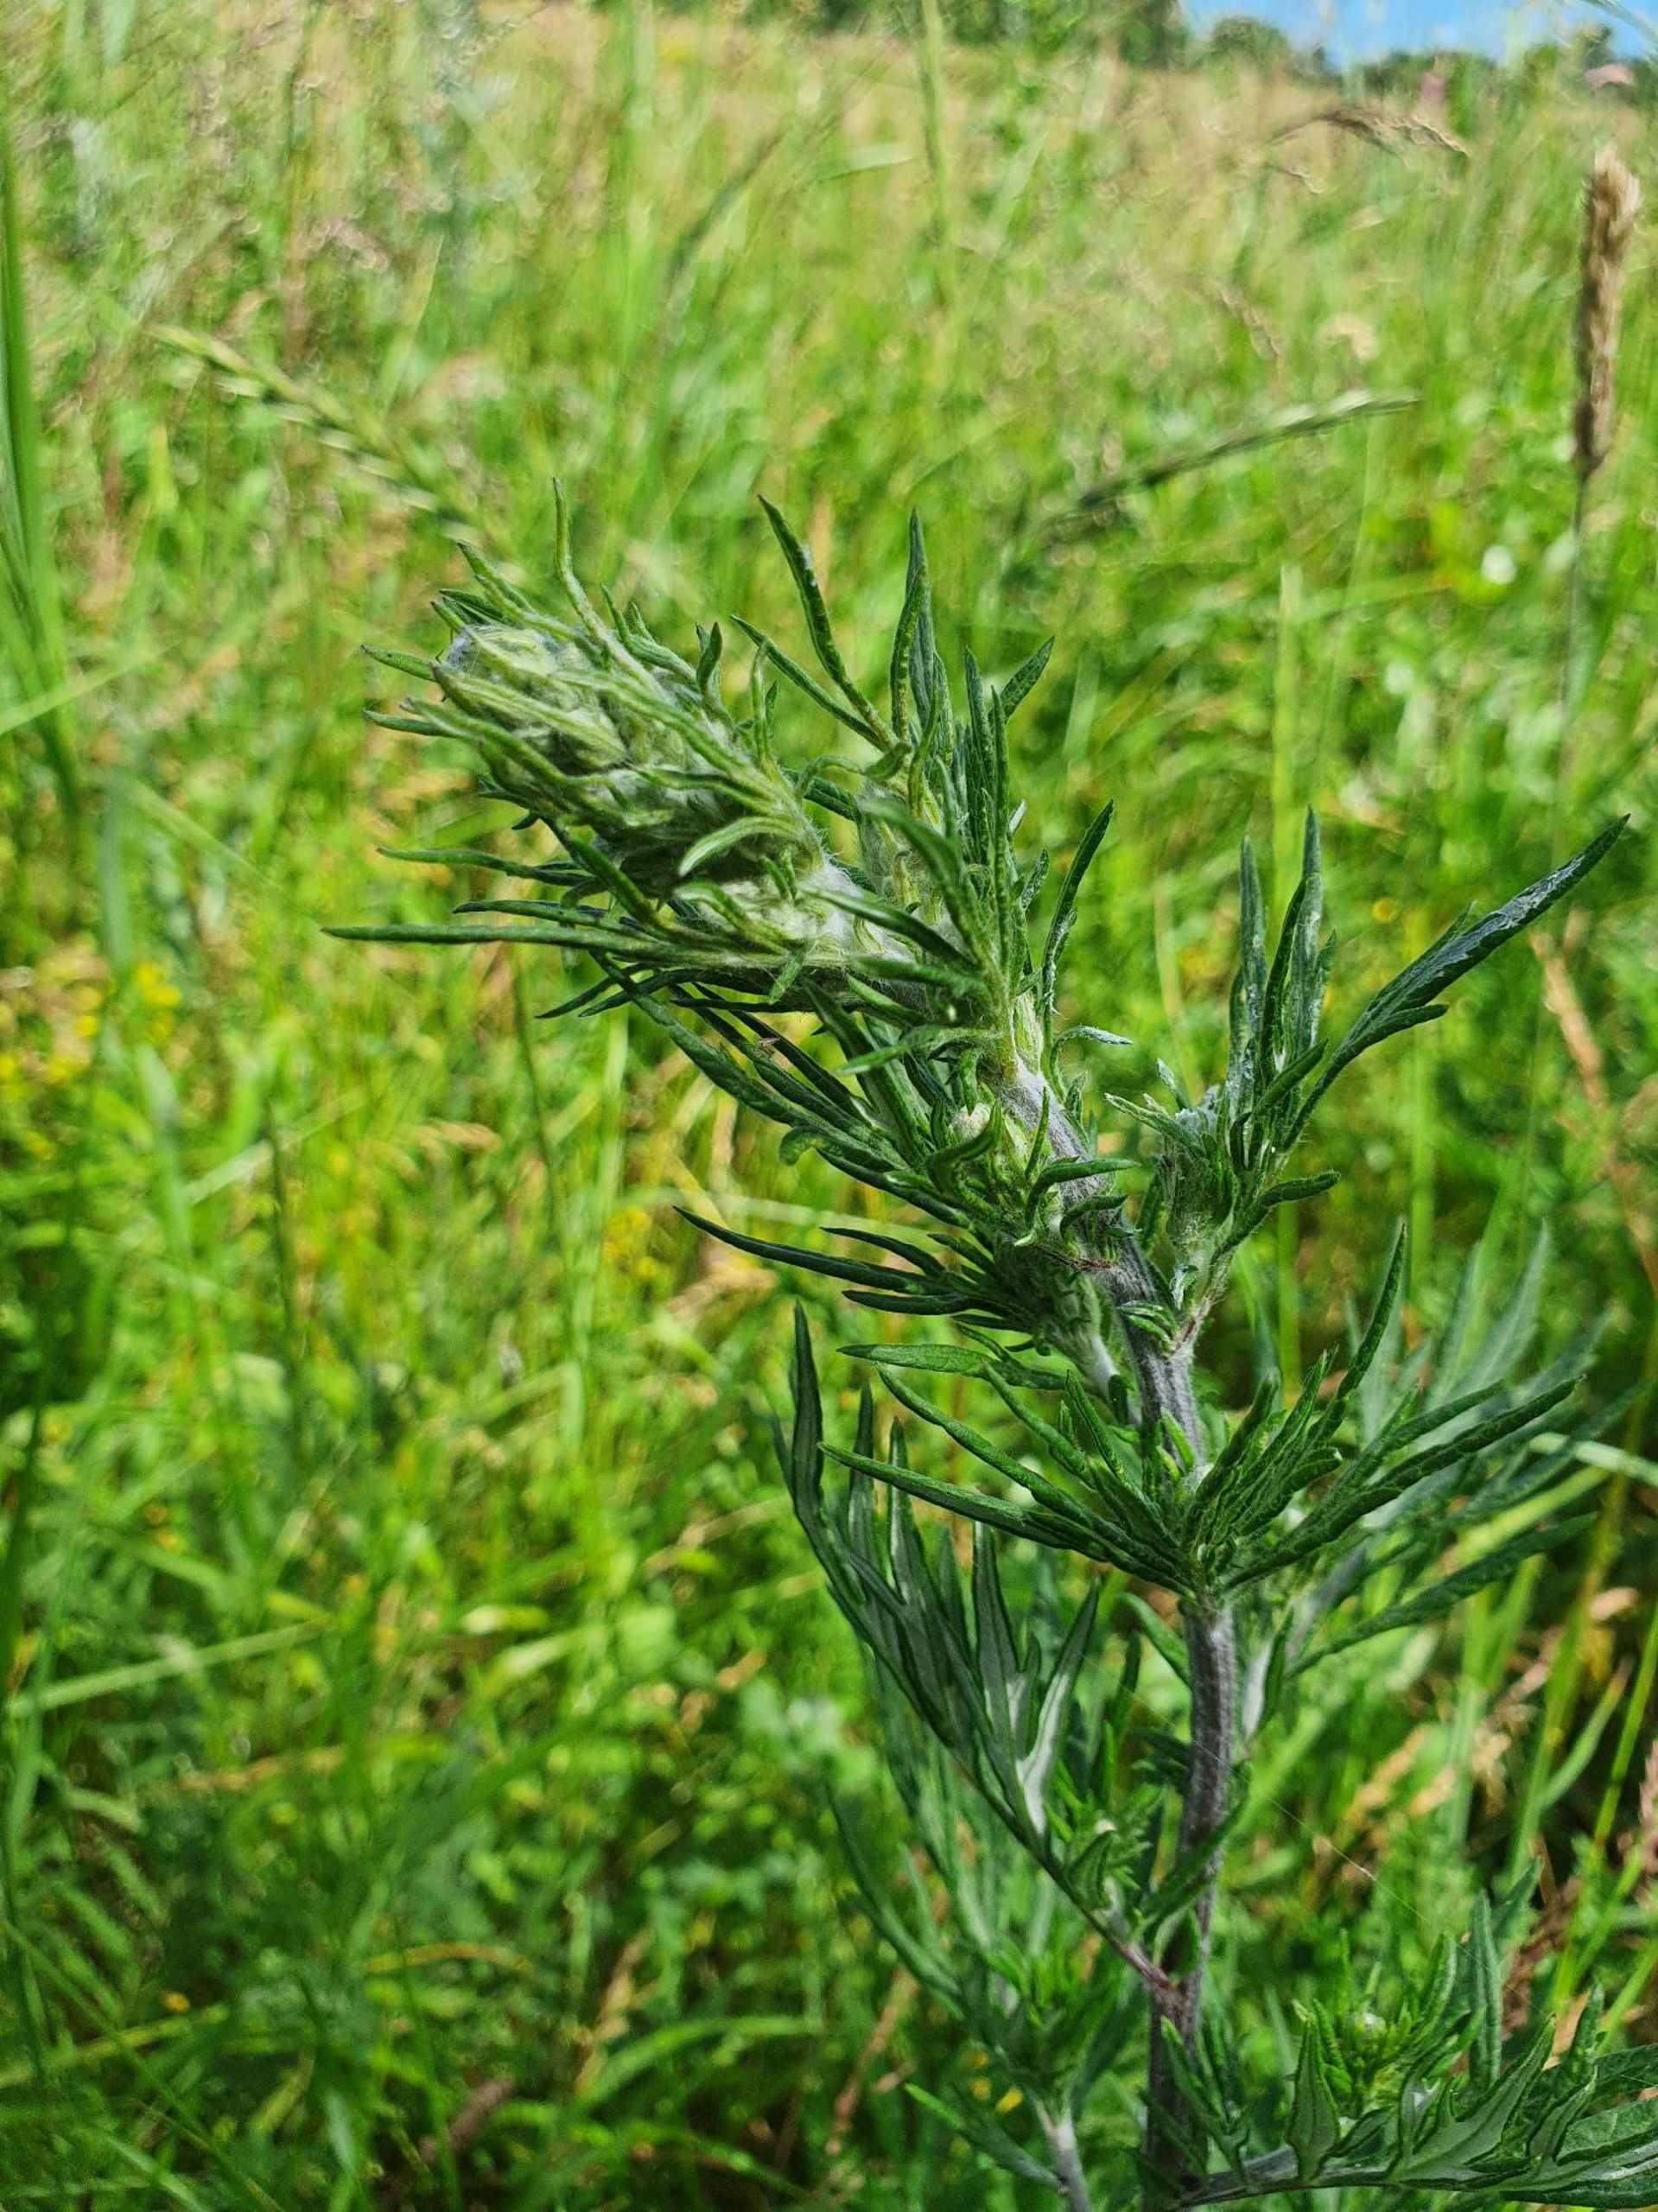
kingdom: Plantae
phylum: Tracheophyta
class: Magnoliopsida
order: Asterales
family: Asteraceae
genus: Artemisia
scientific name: Artemisia vulgaris
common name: Grå-bynke
